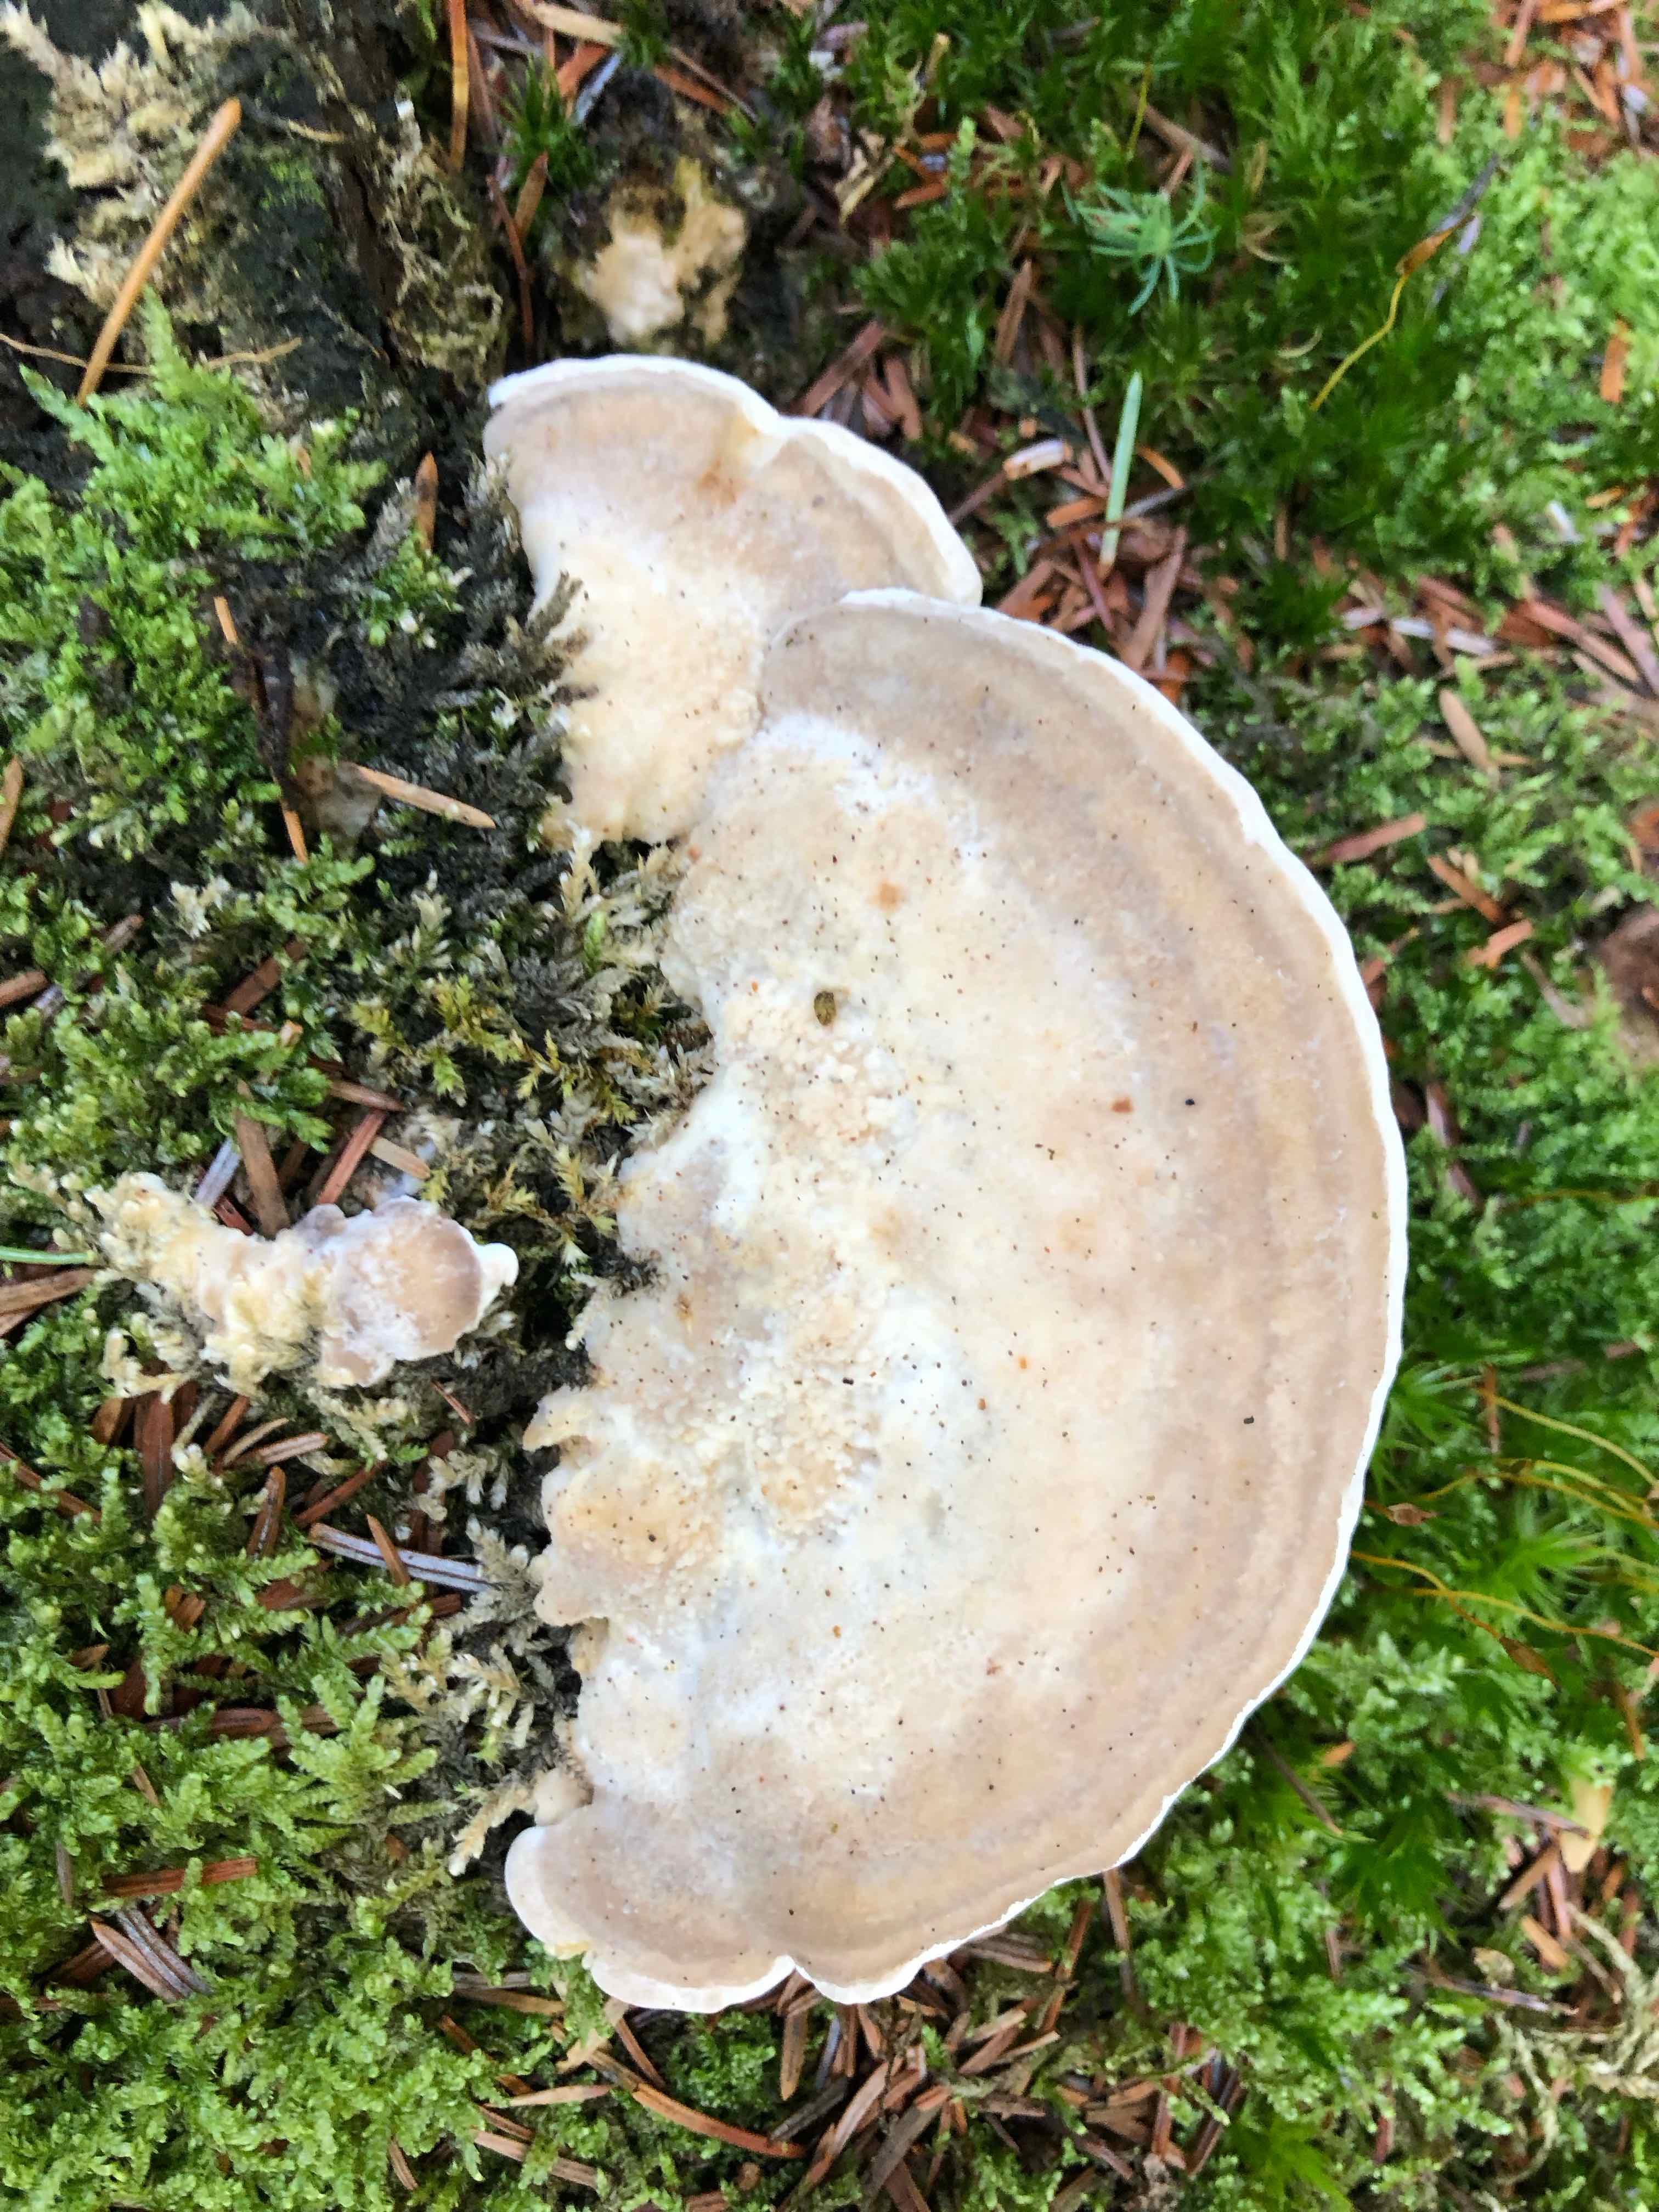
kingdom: Fungi
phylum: Basidiomycota
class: Agaricomycetes
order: Polyporales
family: Polyporaceae
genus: Trametes
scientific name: Trametes gibbosa
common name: puklet læderporesvamp
